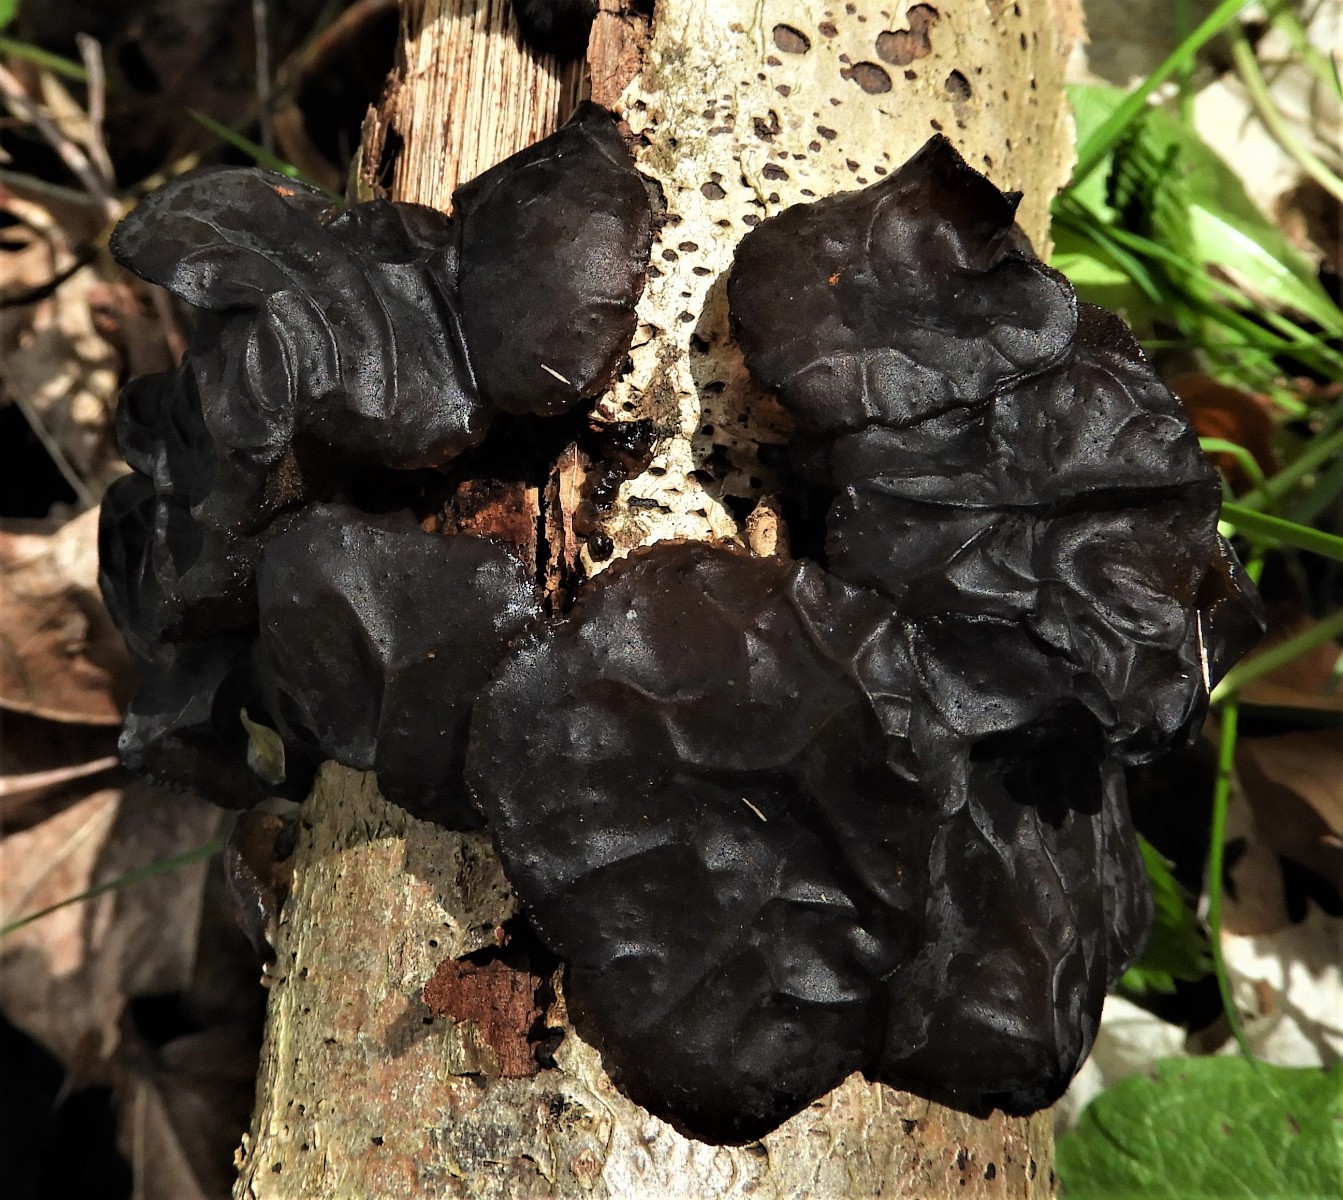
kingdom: Fungi
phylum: Basidiomycota
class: Agaricomycetes
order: Auriculariales
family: Auriculariaceae
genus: Exidia
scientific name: Exidia glandulosa
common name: ege-bævretop
